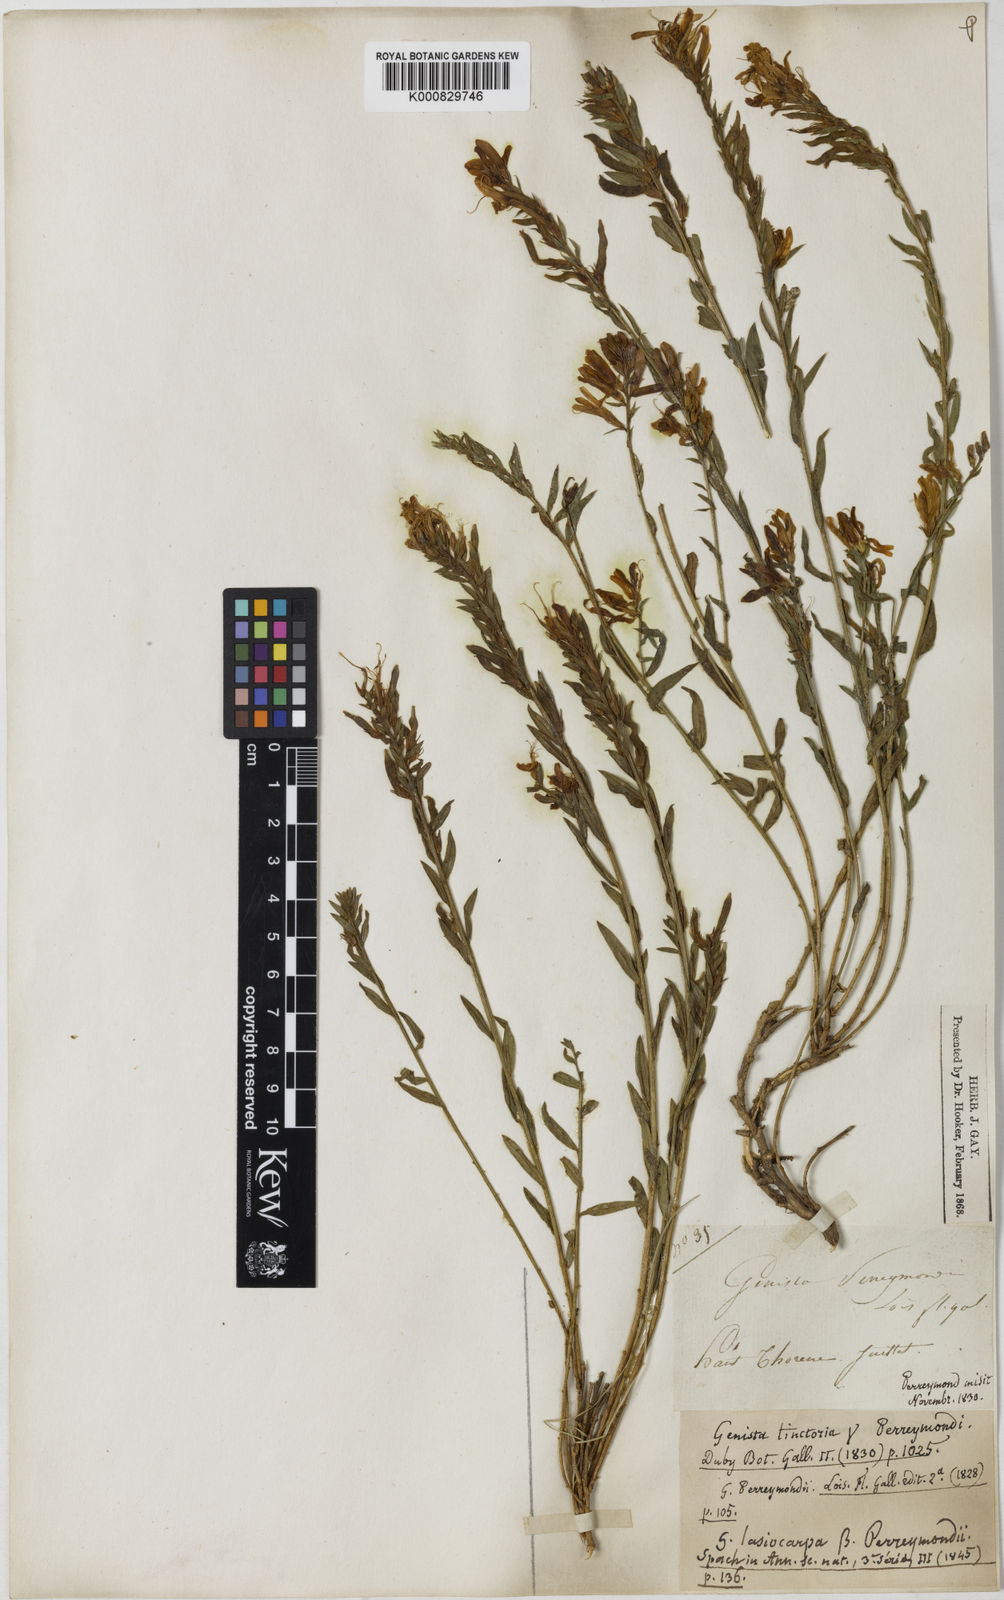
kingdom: Plantae
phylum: Tracheophyta
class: Magnoliopsida
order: Fabales
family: Fabaceae
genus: Genista
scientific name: Genista tinctoria
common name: Dyer's greenweed
